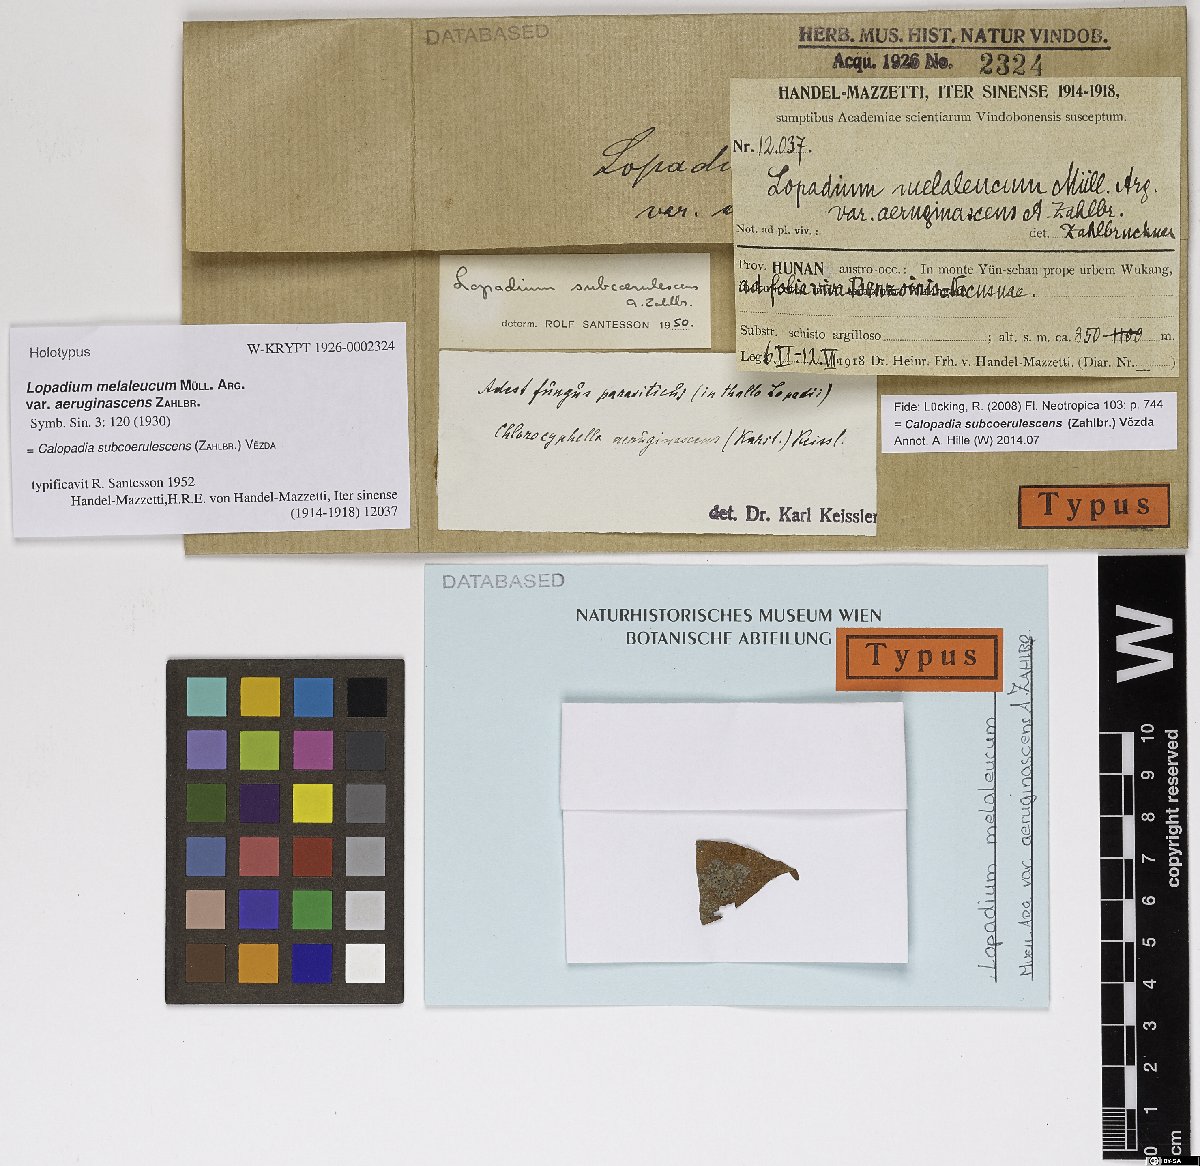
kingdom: Fungi
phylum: Ascomycota
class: Lecanoromycetes
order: Lecanorales
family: Pilocarpaceae
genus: Lopadium
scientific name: Lopadium melaleucum
